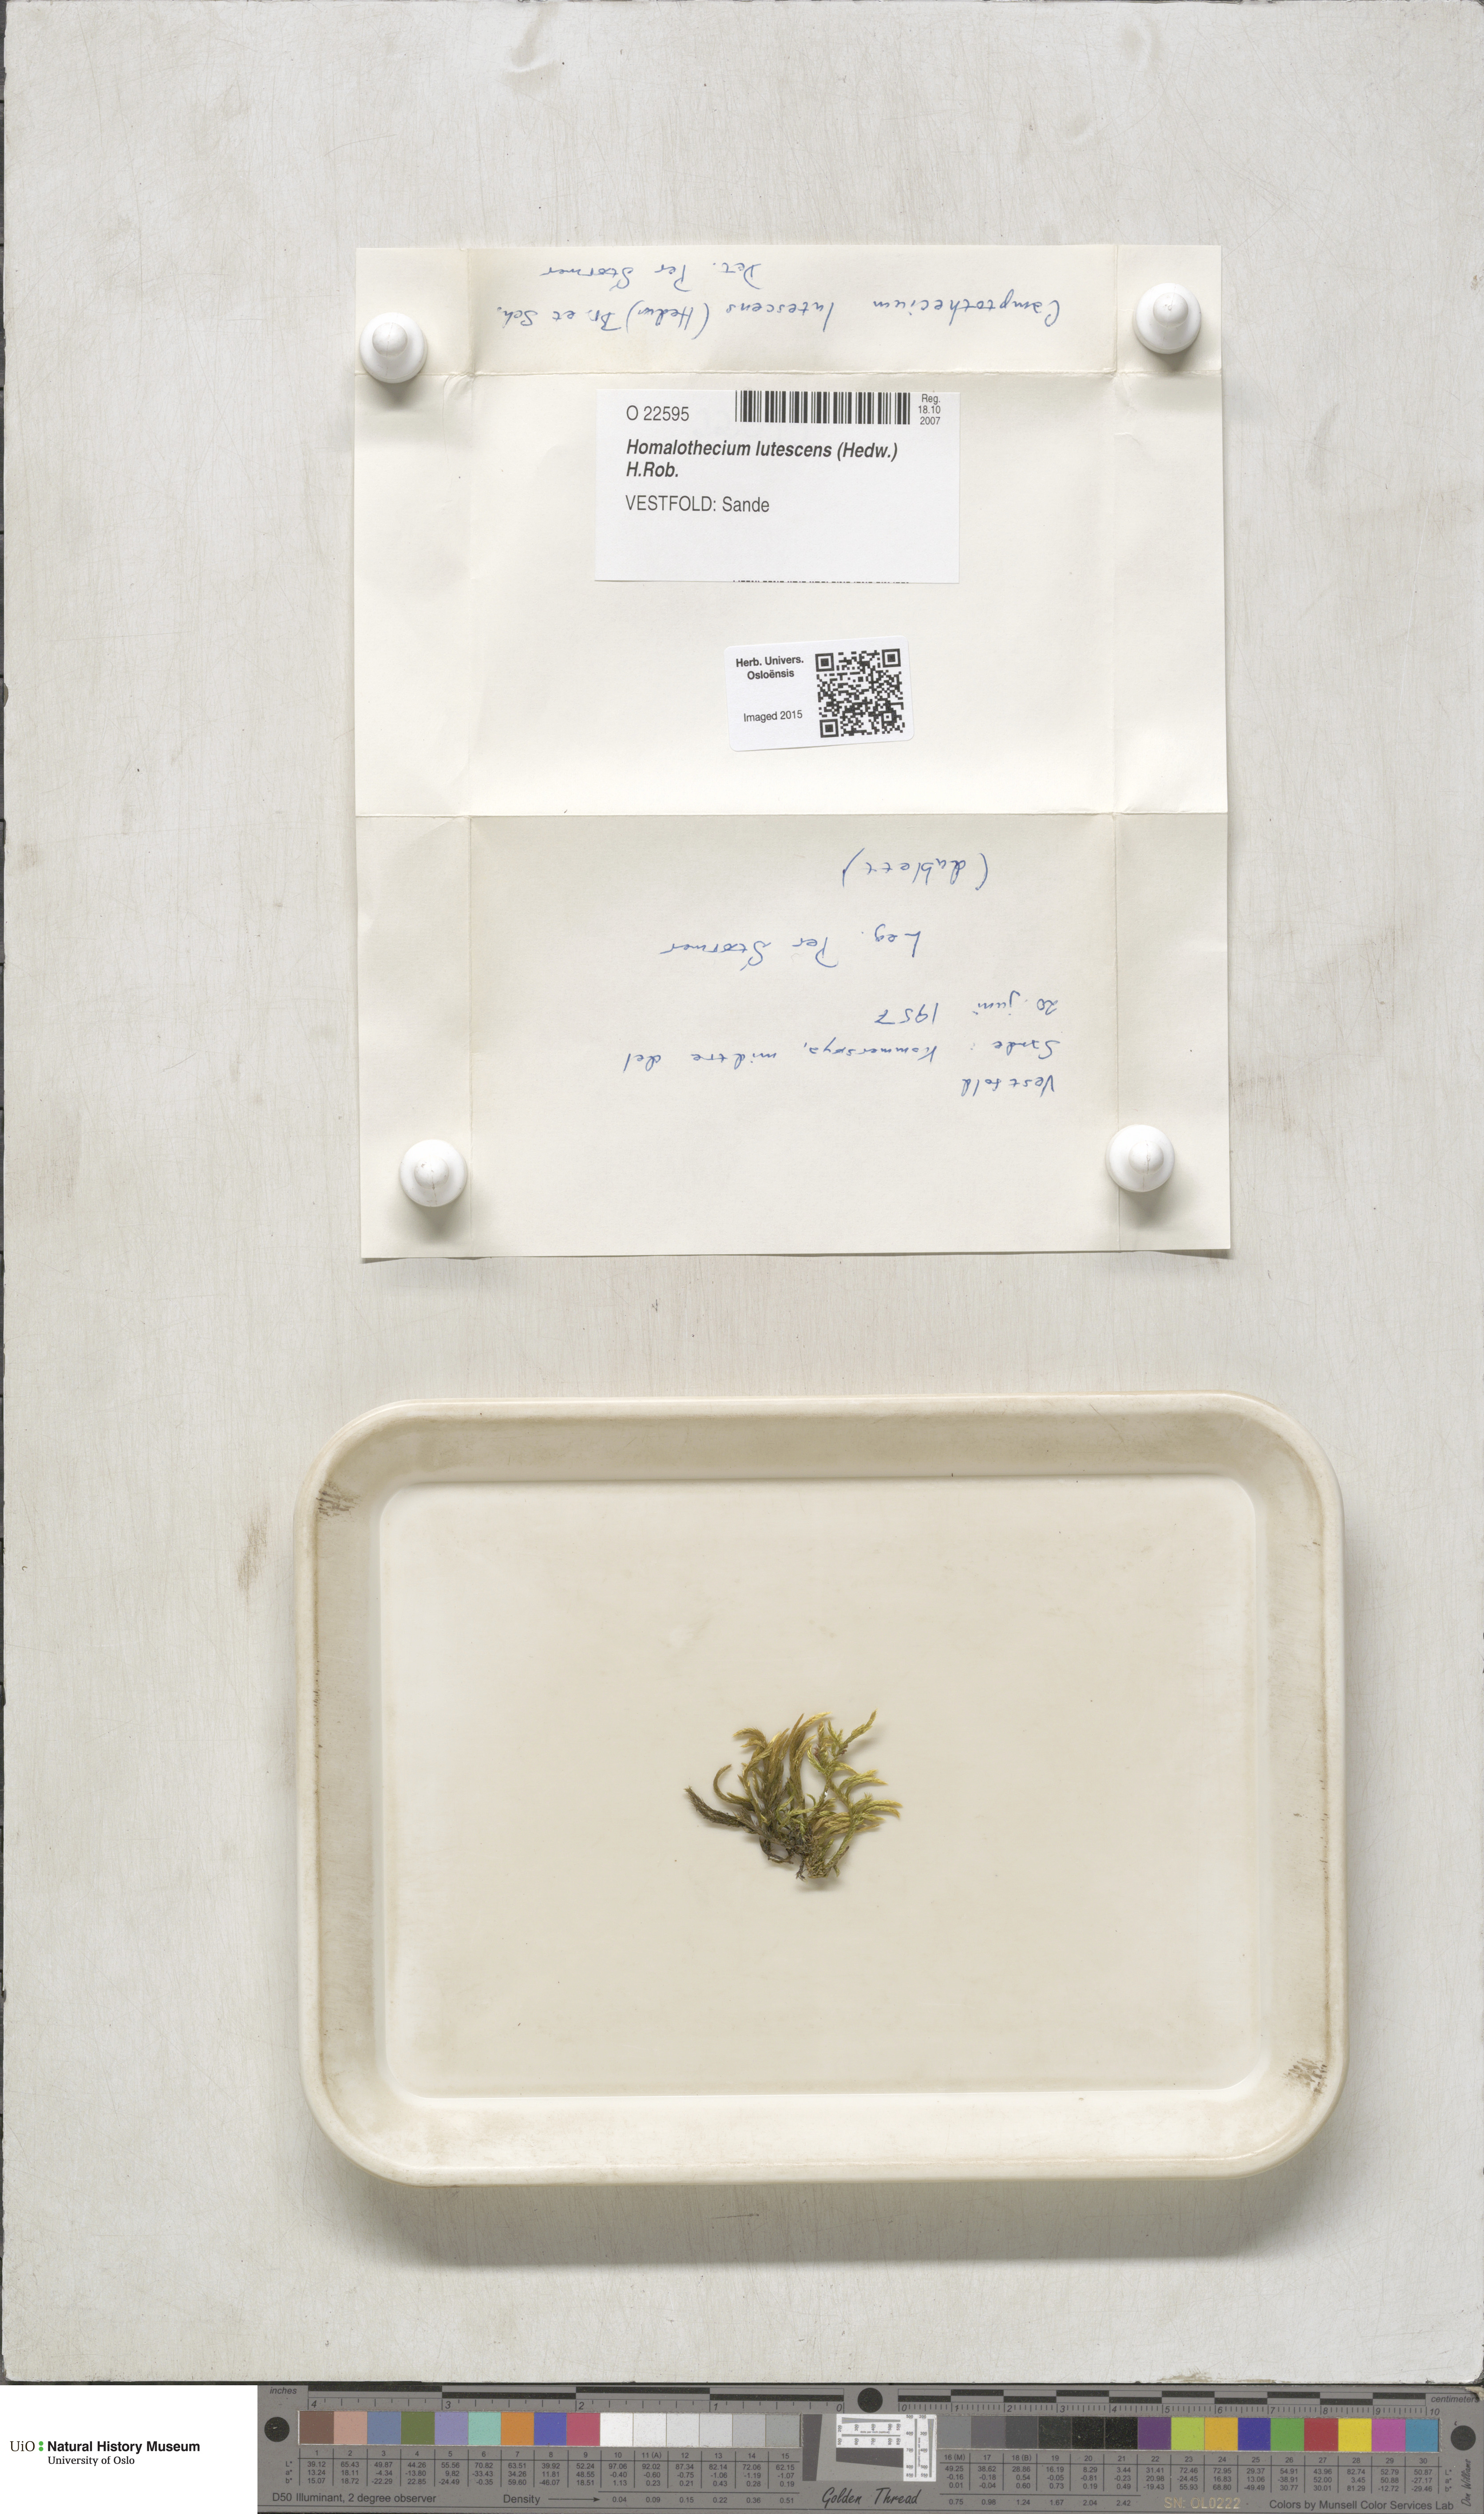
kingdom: Plantae
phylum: Bryophyta
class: Bryopsida
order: Hypnales
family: Brachytheciaceae
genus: Homalothecium
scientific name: Homalothecium lutescens
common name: Yellow feather-moss
